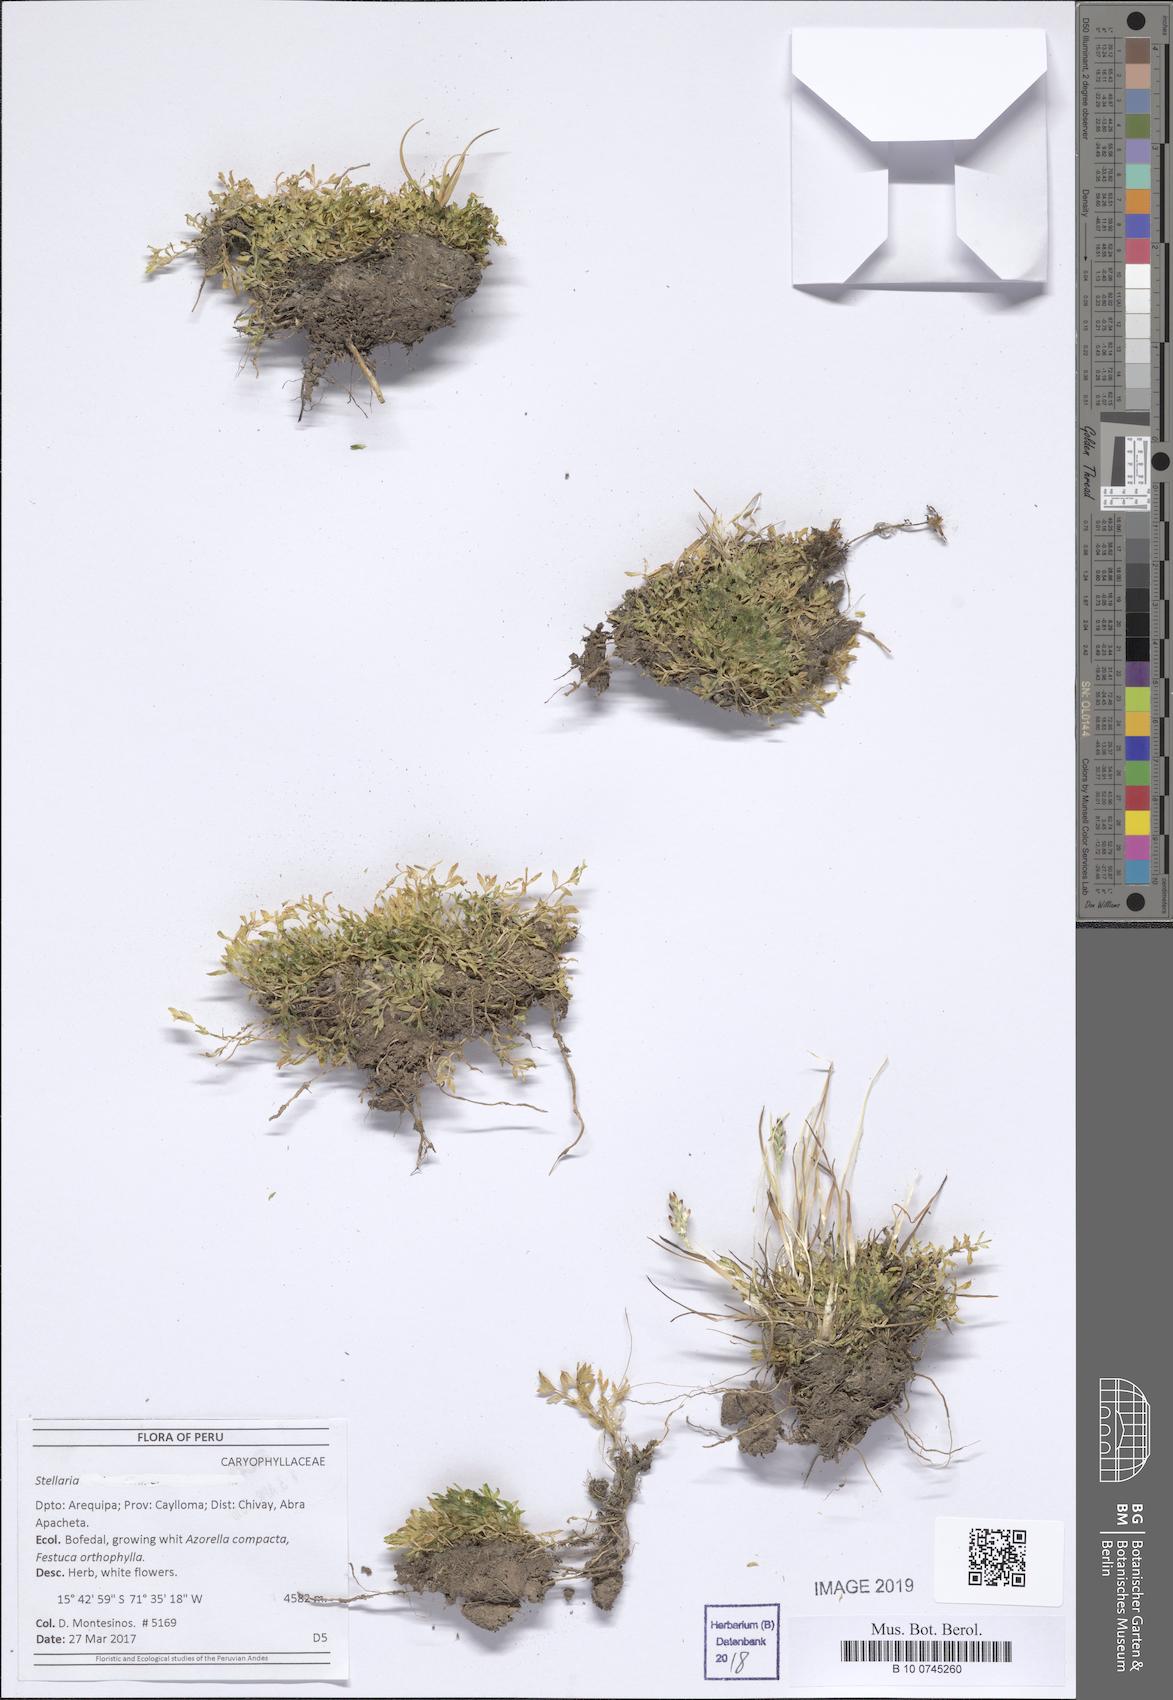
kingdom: Plantae
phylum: Tracheophyta
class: Magnoliopsida
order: Caryophyllales
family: Caryophyllaceae
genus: Stellaria
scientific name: Stellaria
